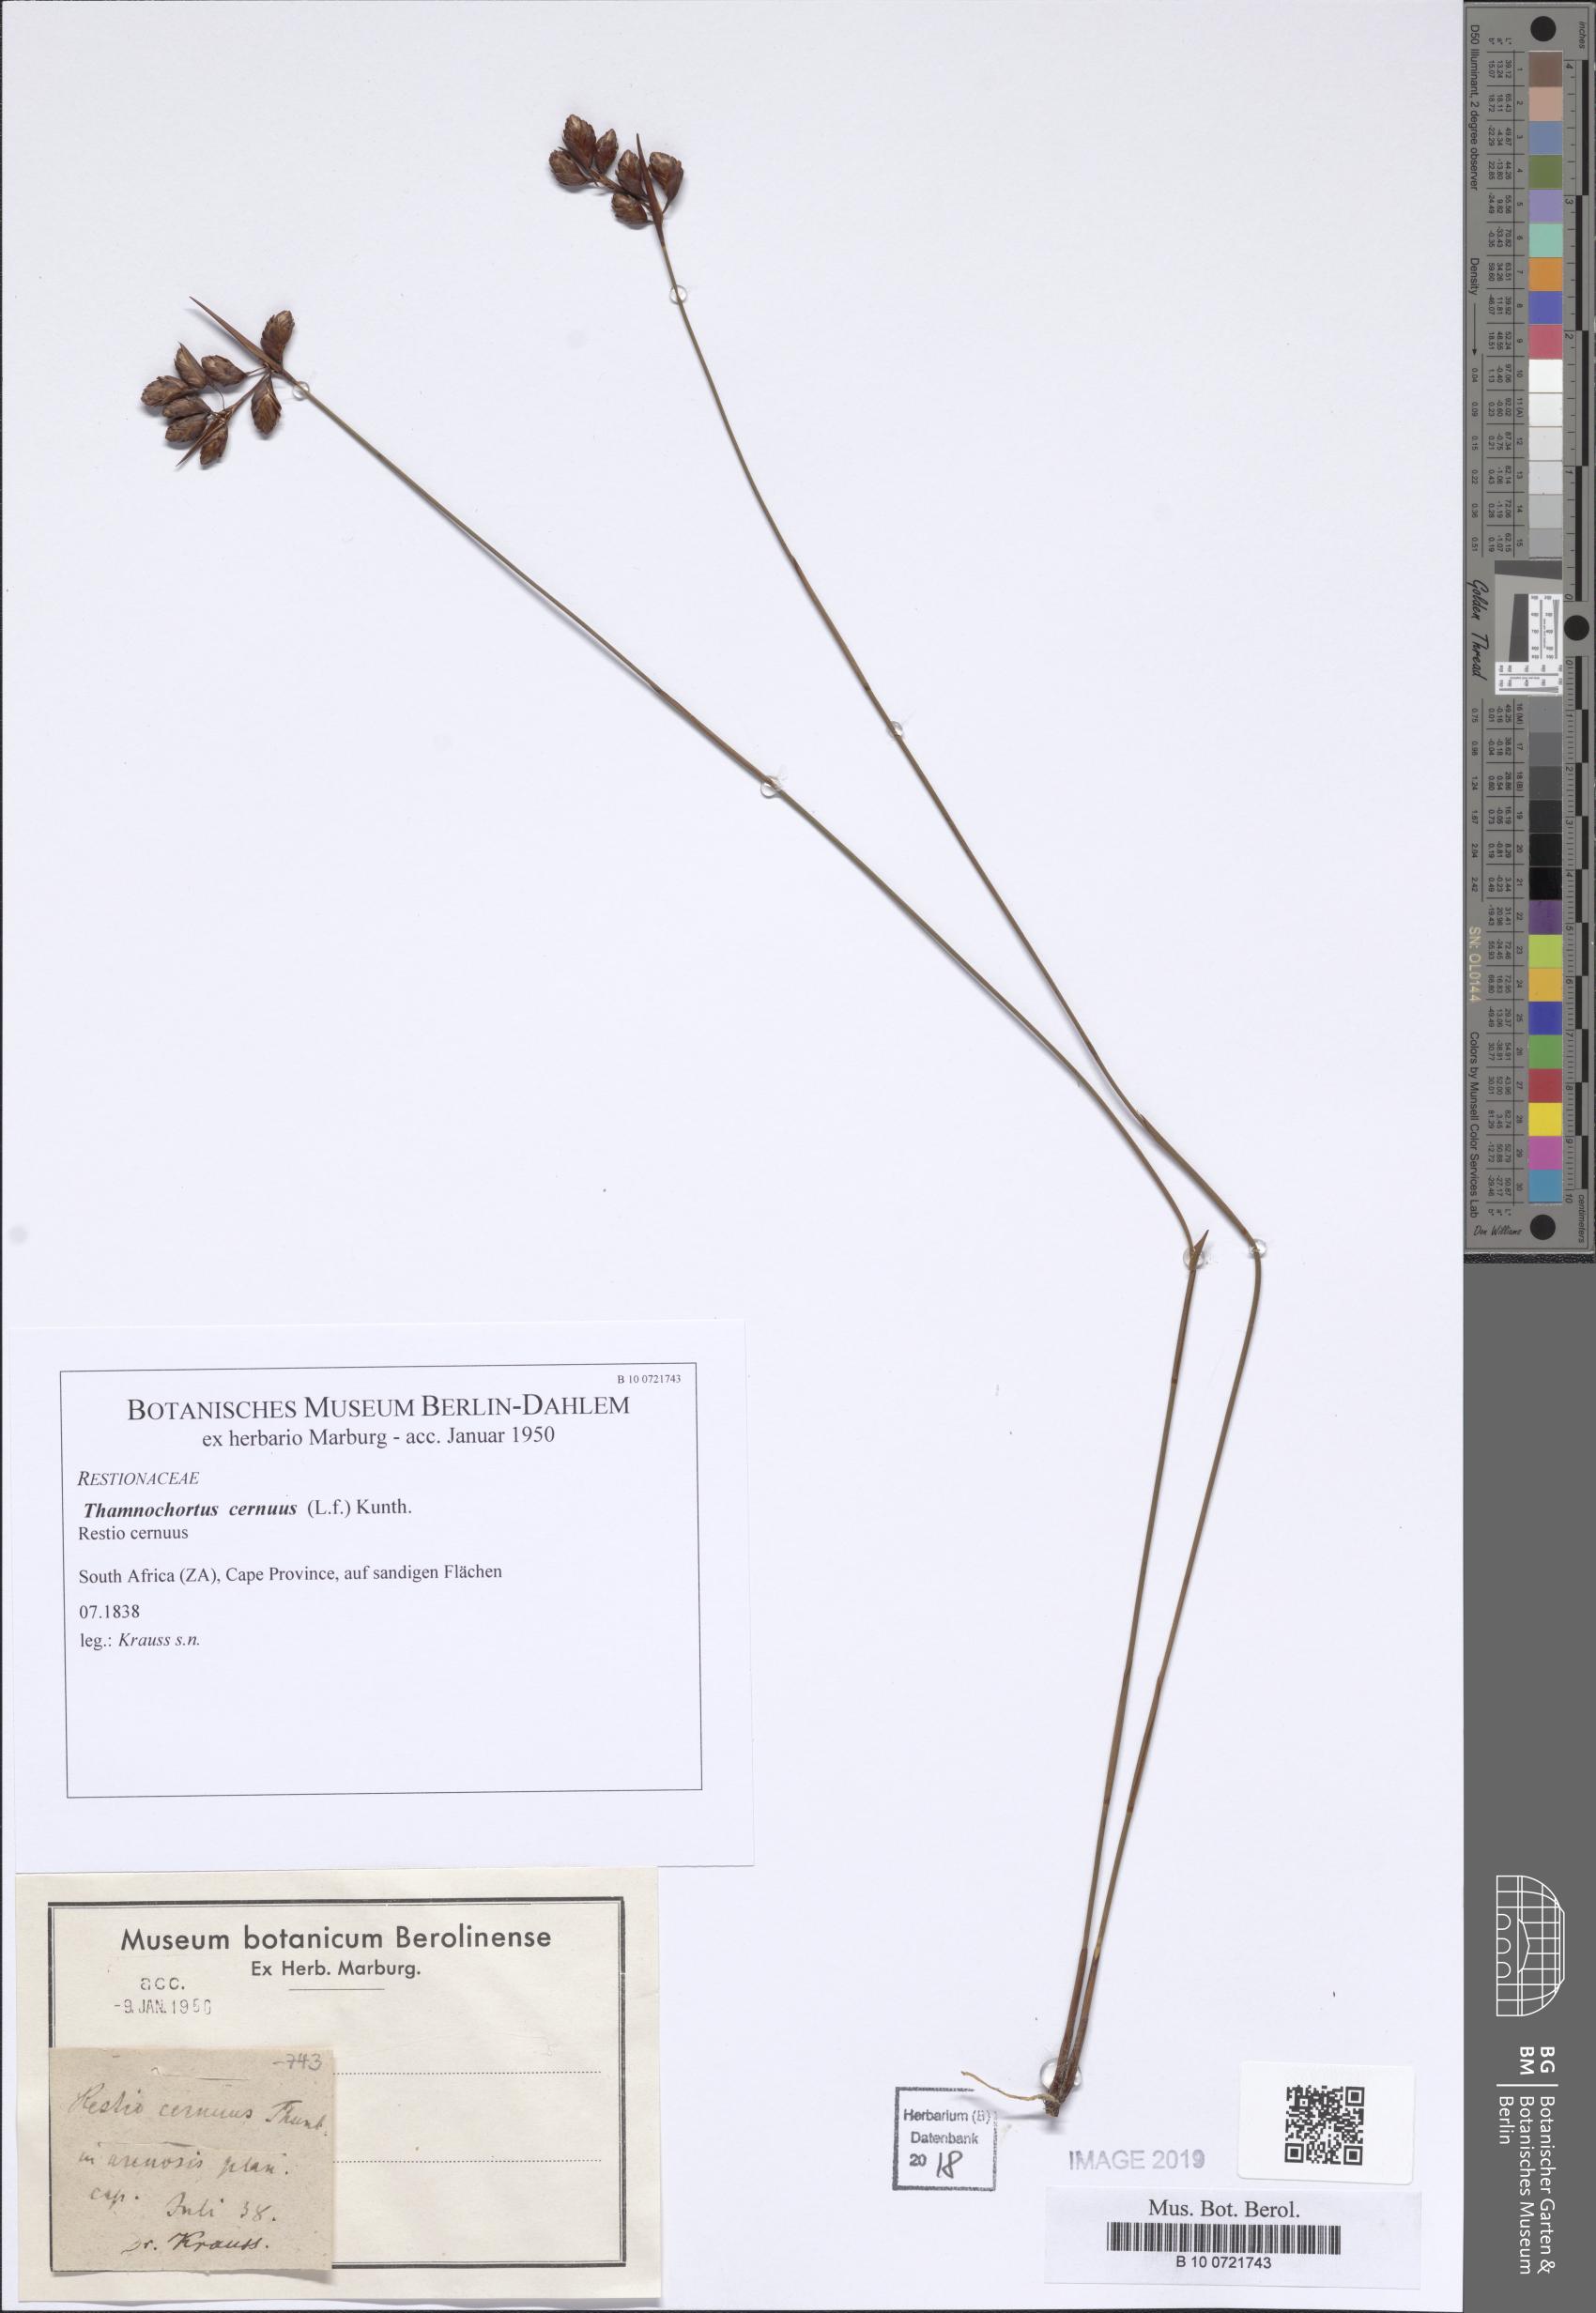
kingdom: Plantae
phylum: Tracheophyta
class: Liliopsida
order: Poales
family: Restionaceae
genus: Staberoha
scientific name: Staberoha cernua
